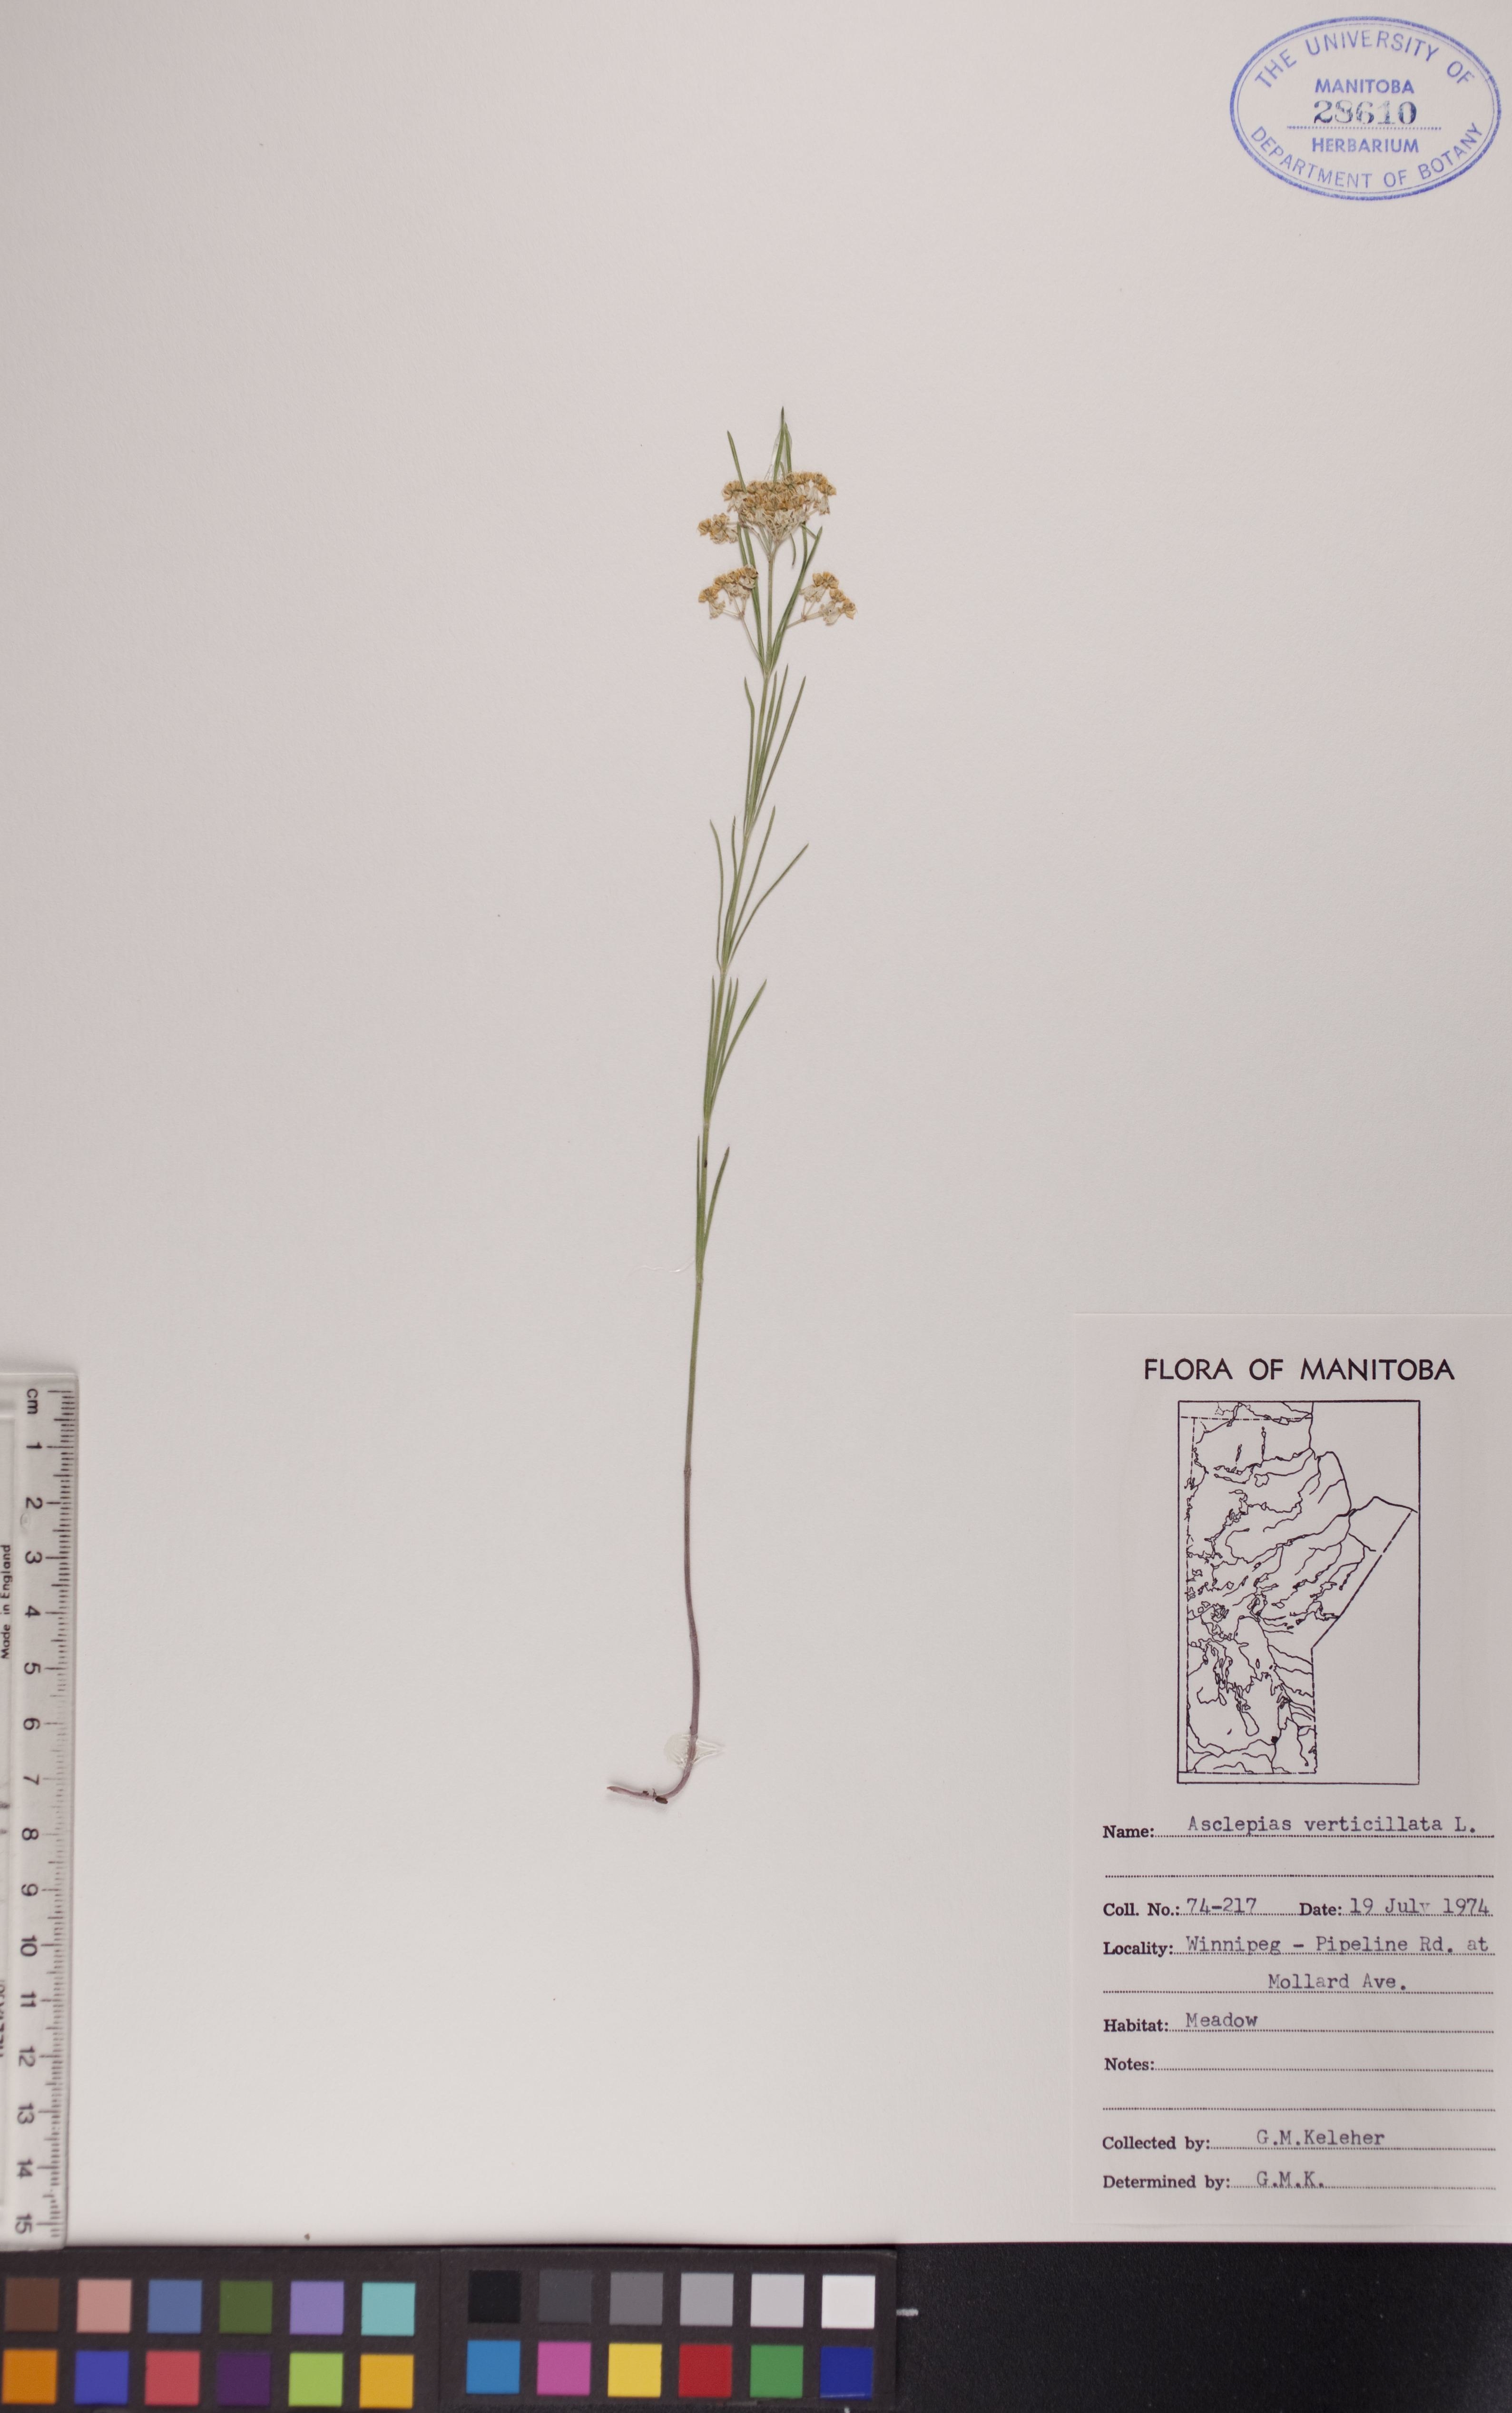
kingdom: Plantae
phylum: Tracheophyta
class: Magnoliopsida
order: Gentianales
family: Apocynaceae
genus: Asclepias
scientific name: Asclepias verticillata
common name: Eastern whorled milkweed
